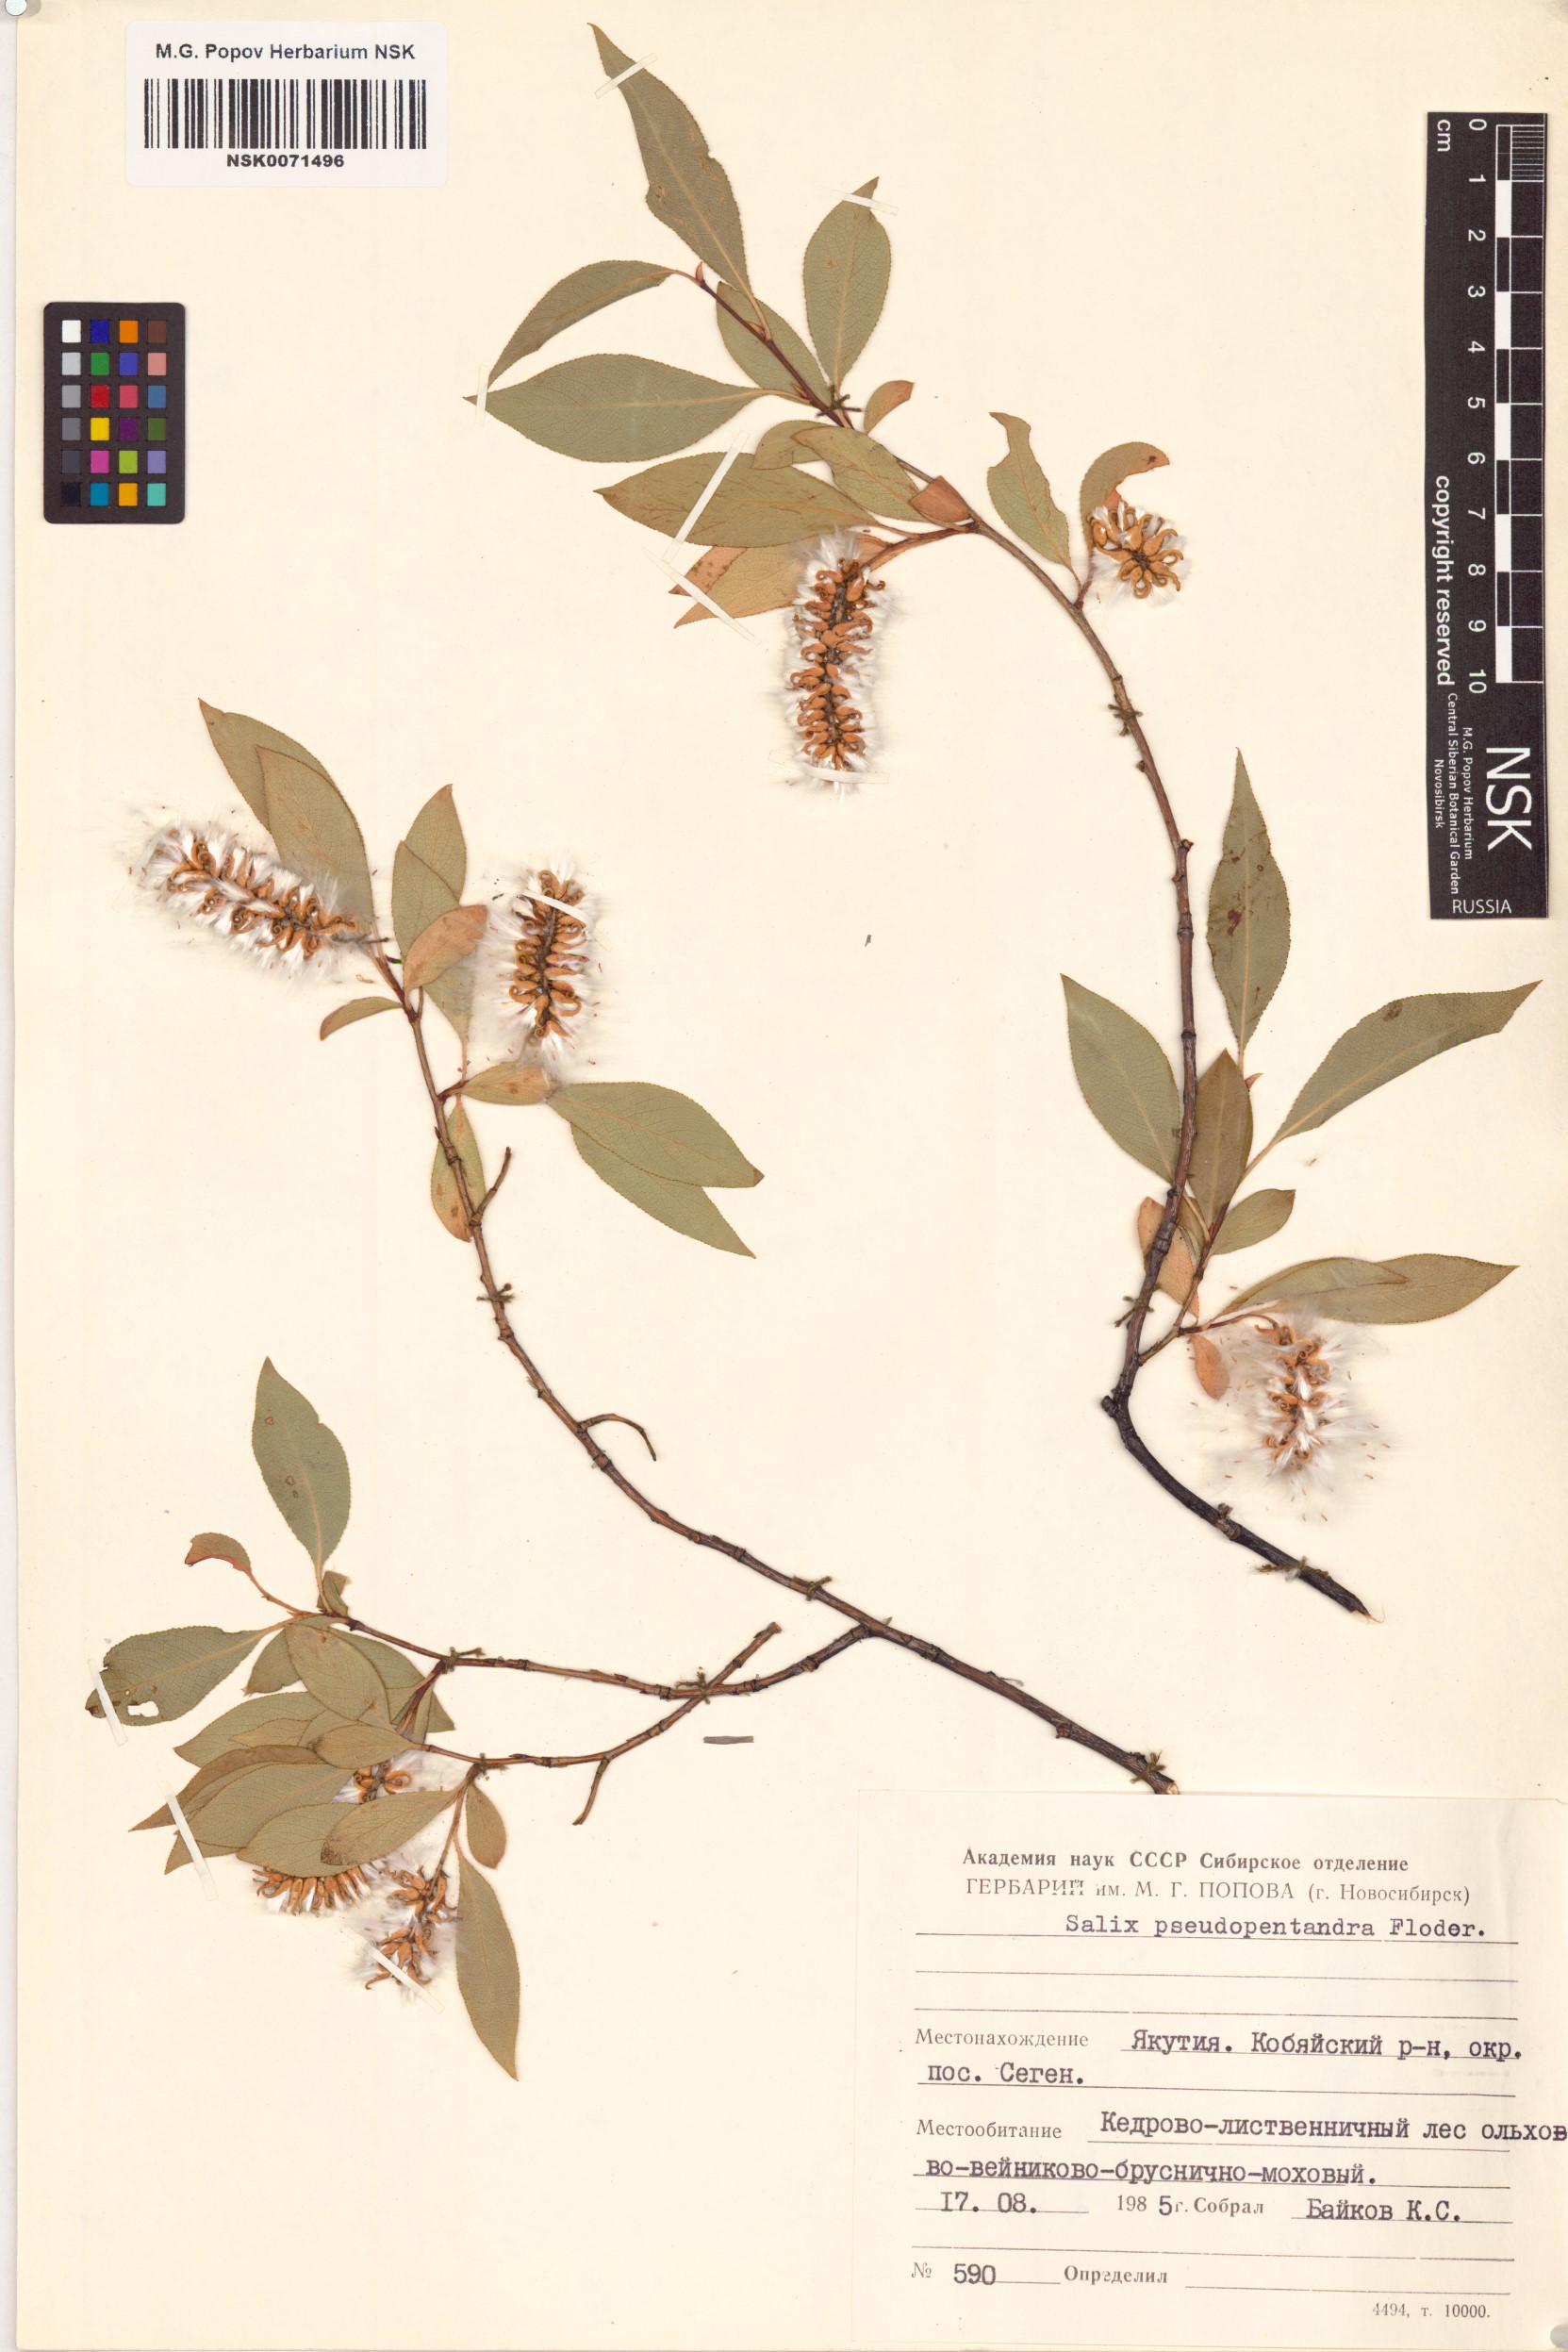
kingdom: Plantae
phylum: Tracheophyta
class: Magnoliopsida
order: Malpighiales
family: Salicaceae
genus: Salix
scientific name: Salix pseudopentandra
